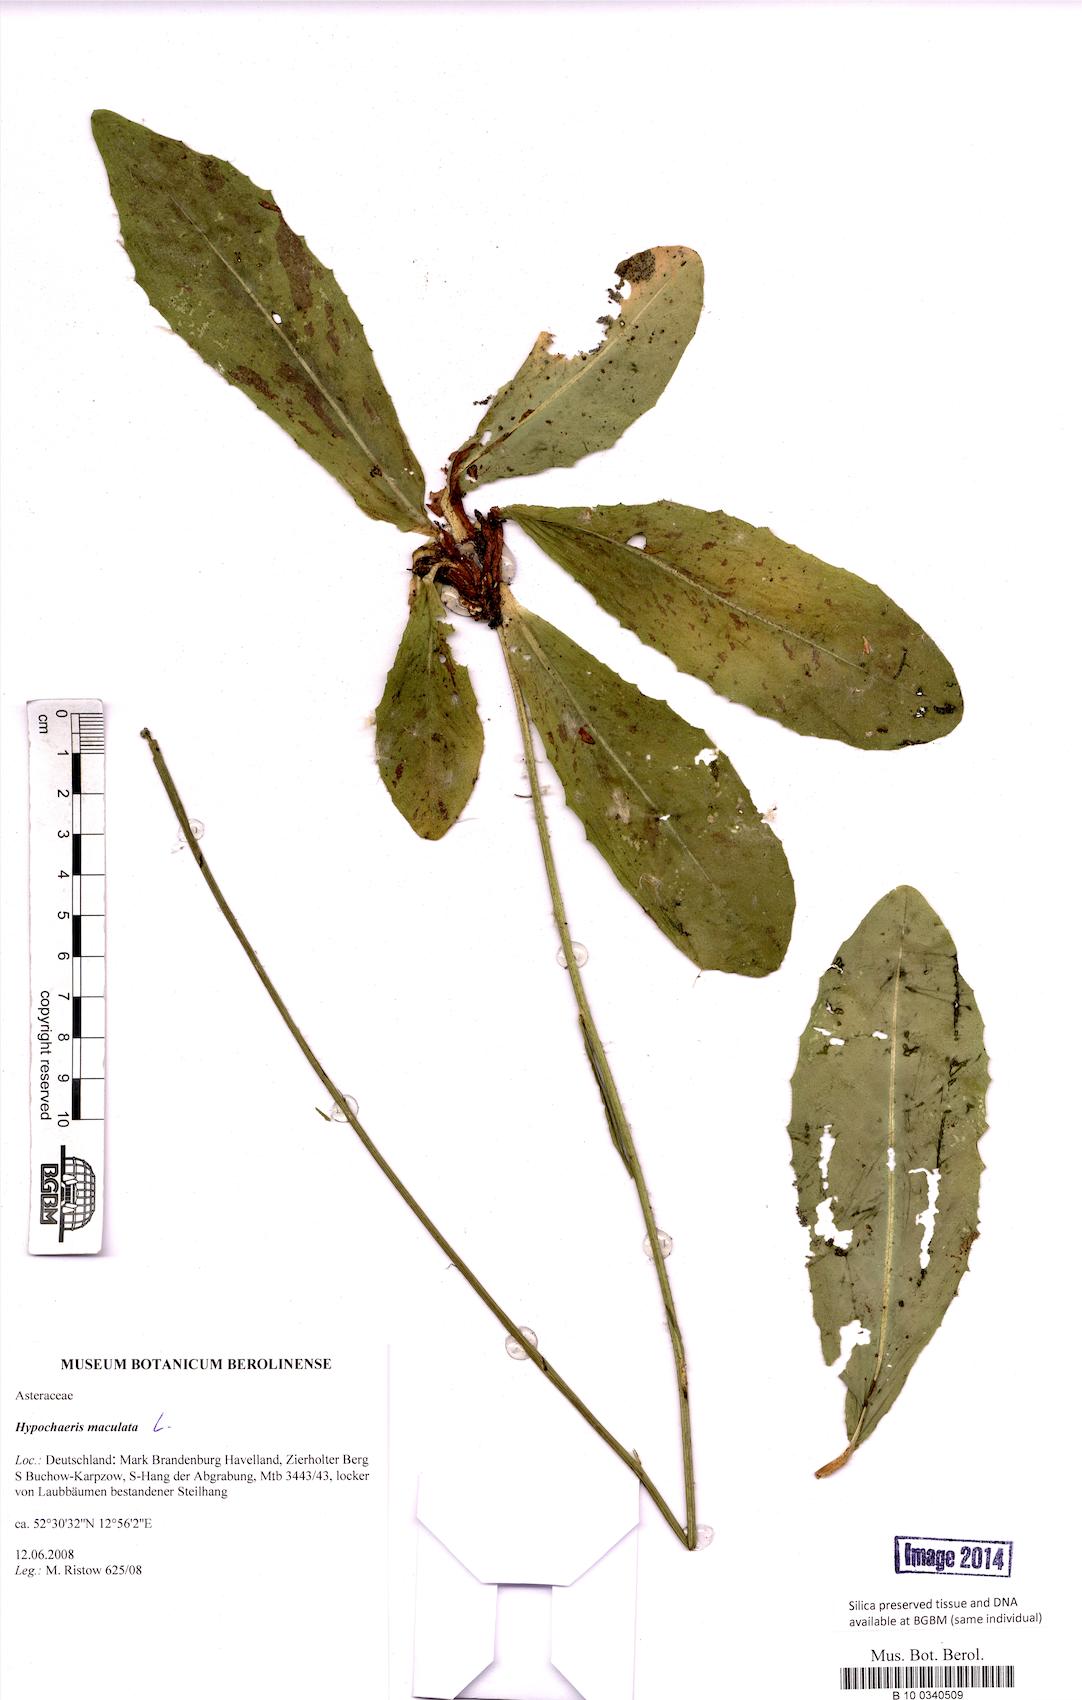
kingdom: Plantae
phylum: Tracheophyta
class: Magnoliopsida
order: Asterales
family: Asteraceae
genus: Trommsdorffia
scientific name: Trommsdorffia maculata
